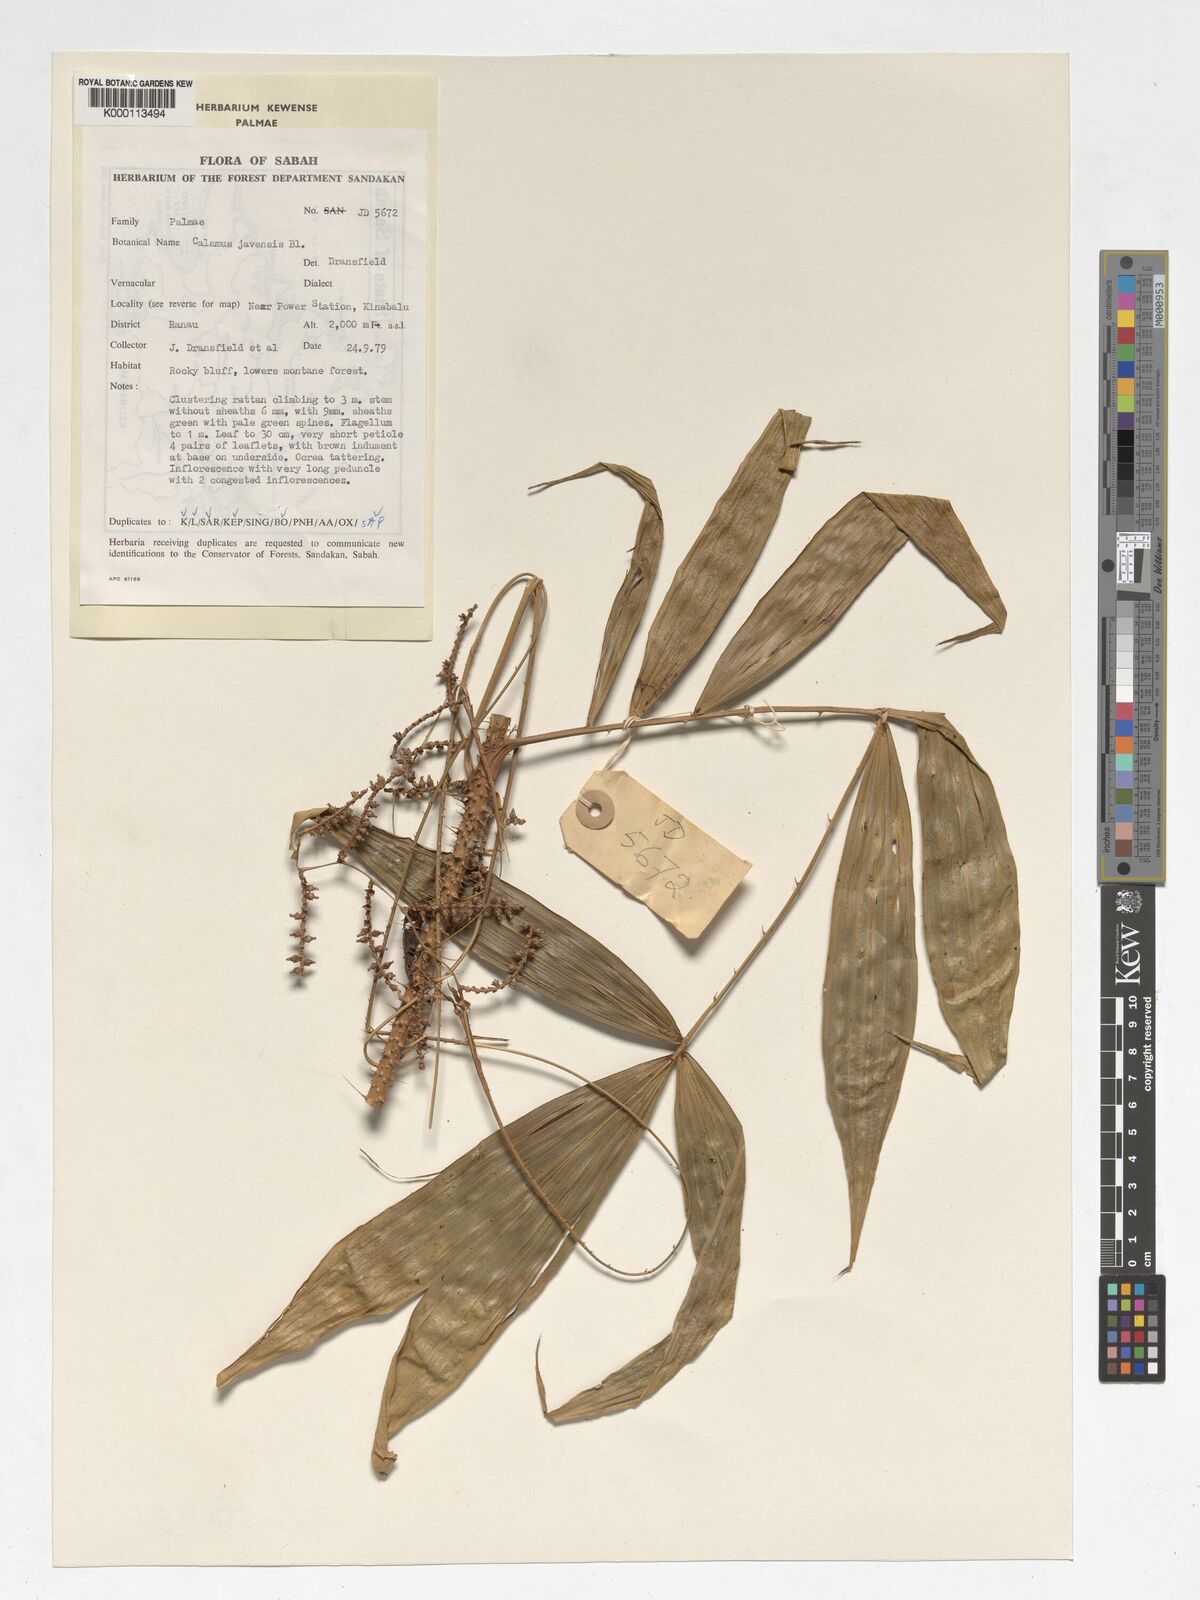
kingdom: Plantae
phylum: Tracheophyta
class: Liliopsida
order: Arecales
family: Arecaceae
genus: Calamus
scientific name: Calamus javensis
